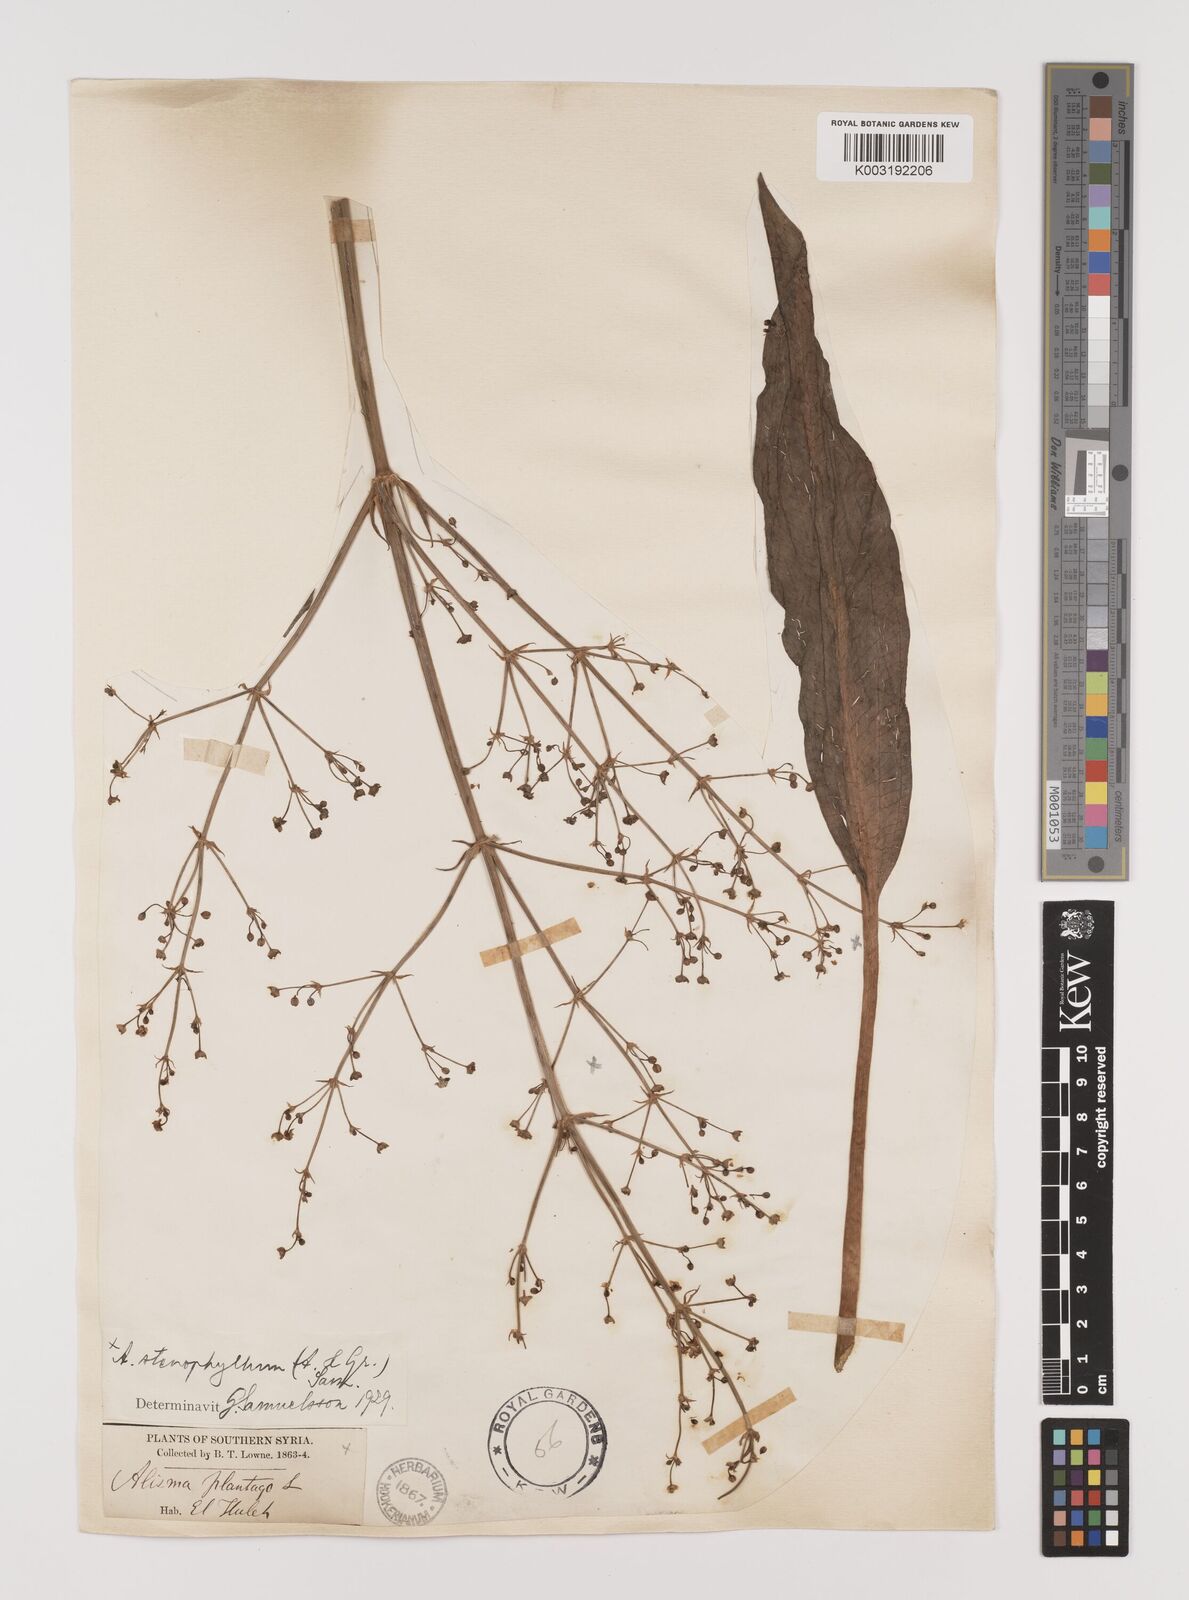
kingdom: Plantae
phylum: Tracheophyta
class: Liliopsida
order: Alismatales
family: Alismataceae
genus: Alisma
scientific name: Alisma lanceolatum
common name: Narrow-leaved water-plantain
